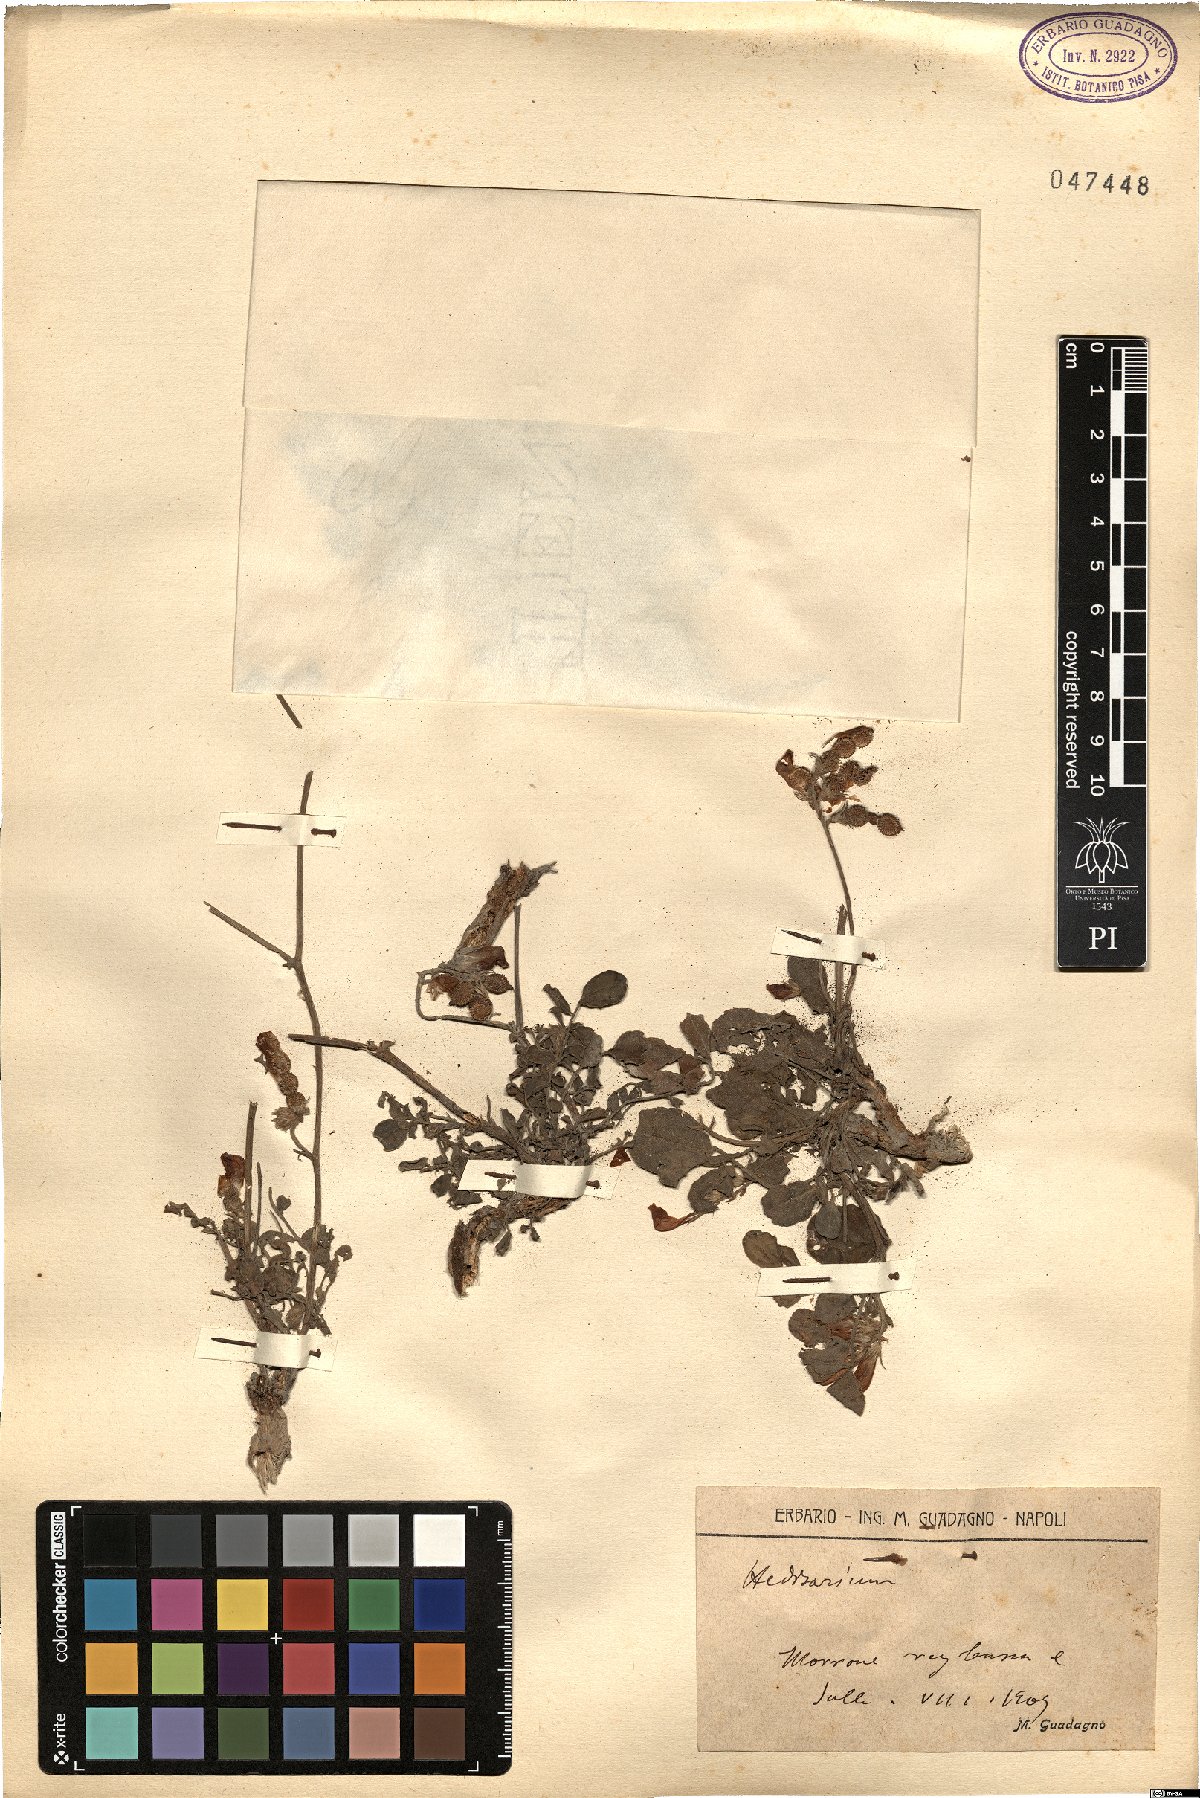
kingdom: Plantae
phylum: Tracheophyta
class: Magnoliopsida
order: Fabales
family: Fabaceae
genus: Hedysarum
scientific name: Hedysarum
